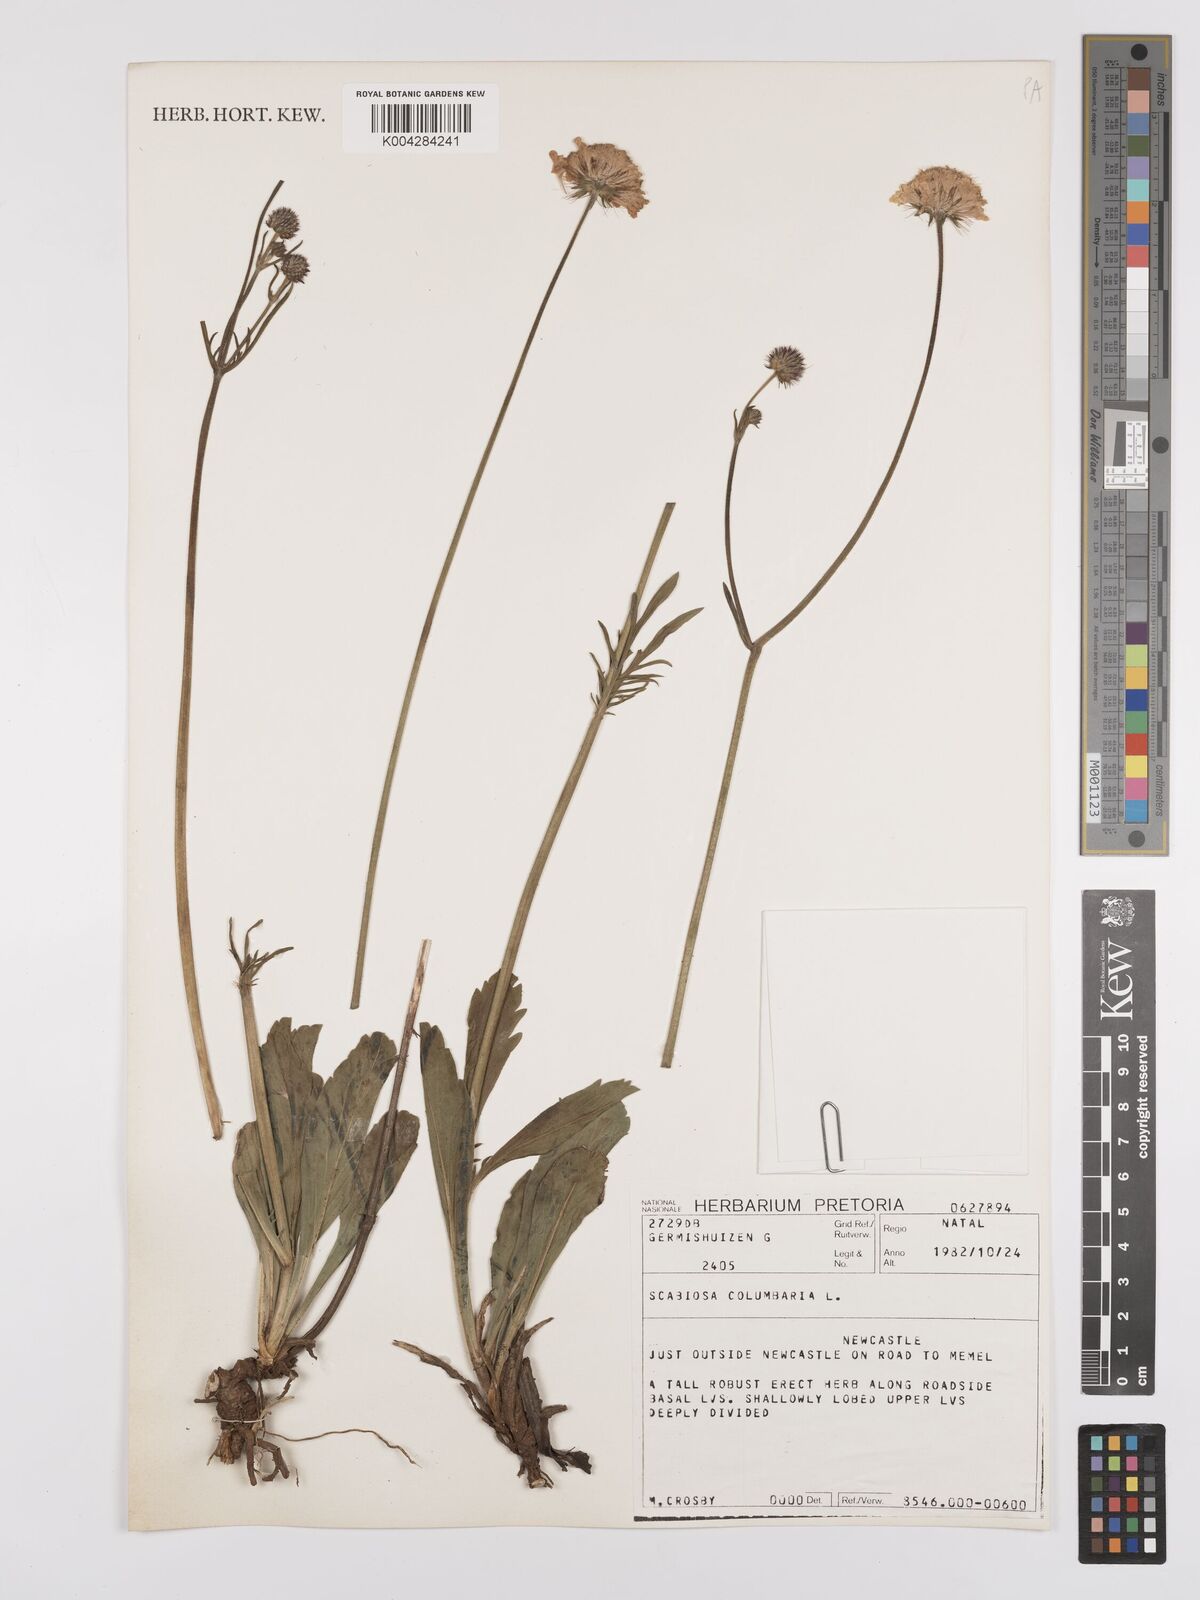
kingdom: Plantae
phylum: Tracheophyta
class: Magnoliopsida
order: Dipsacales
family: Caprifoliaceae
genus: Scabiosa
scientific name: Scabiosa columbaria
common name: Small scabious
